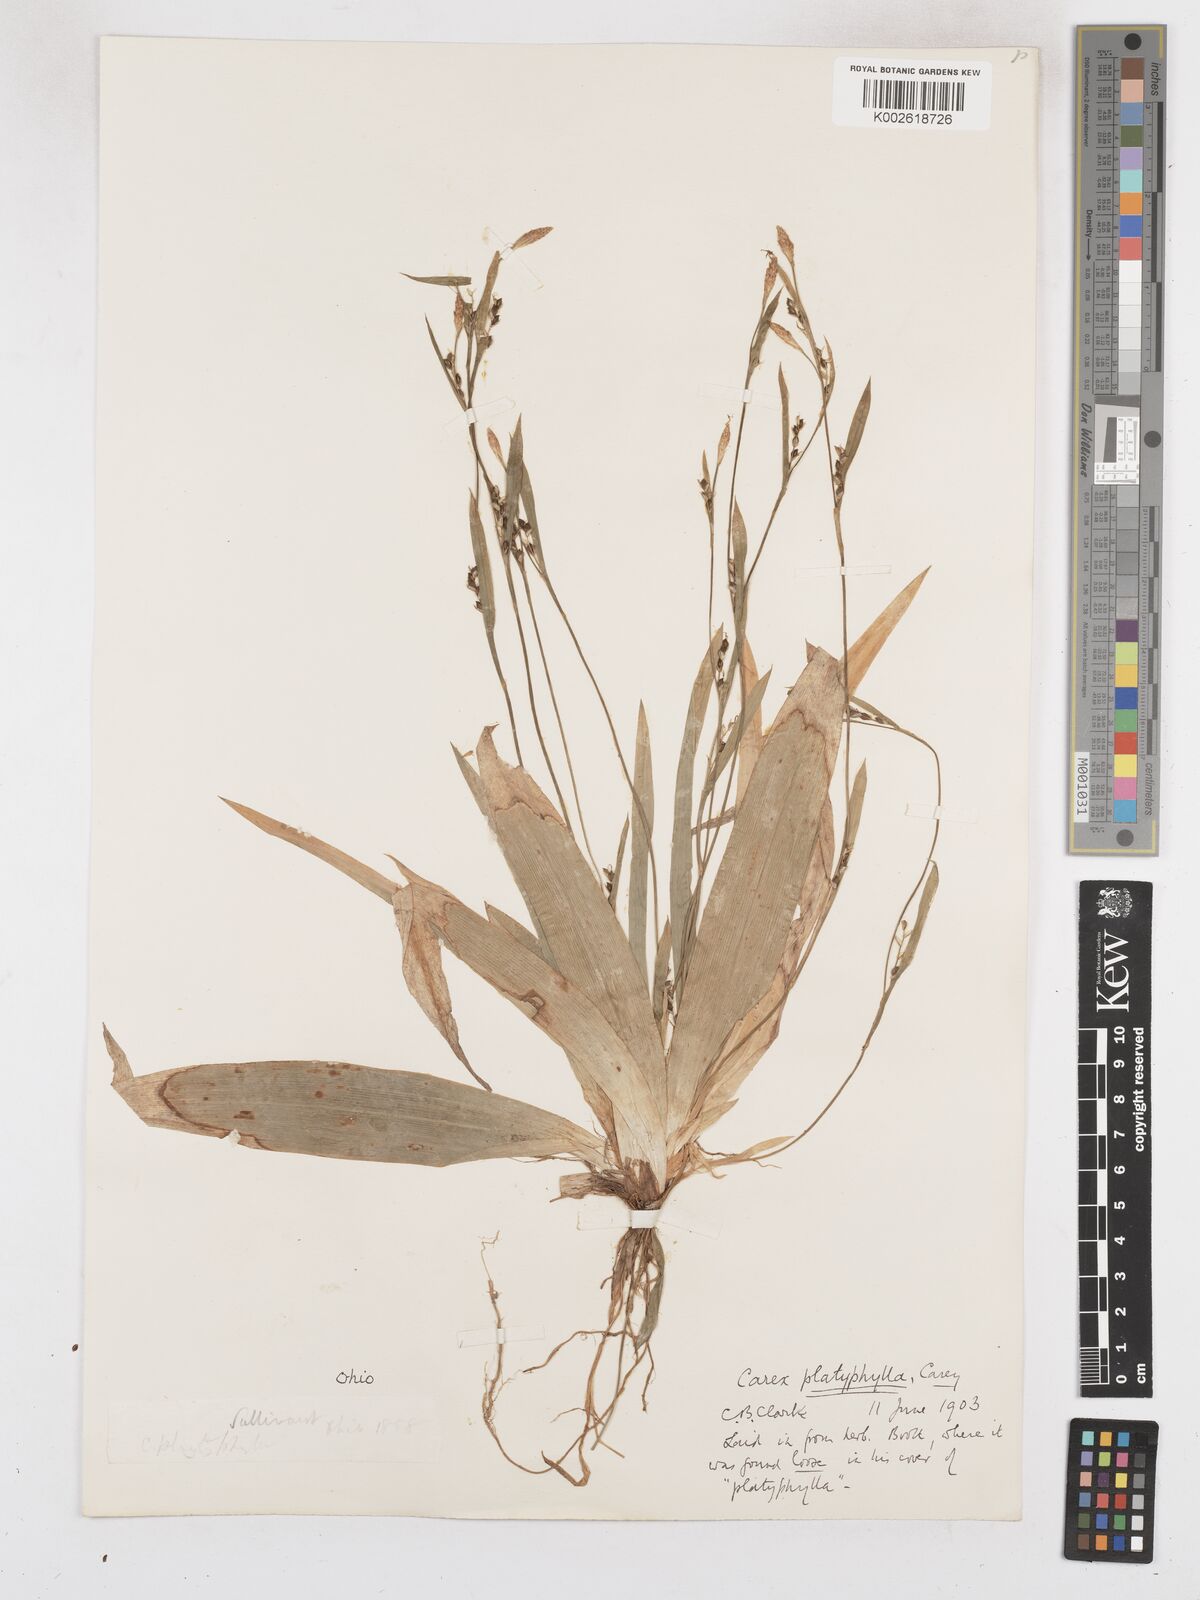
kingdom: Plantae
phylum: Tracheophyta
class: Liliopsida
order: Poales
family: Cyperaceae
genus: Carex
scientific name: Carex platyphylla
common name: Broad-leaved sedge
